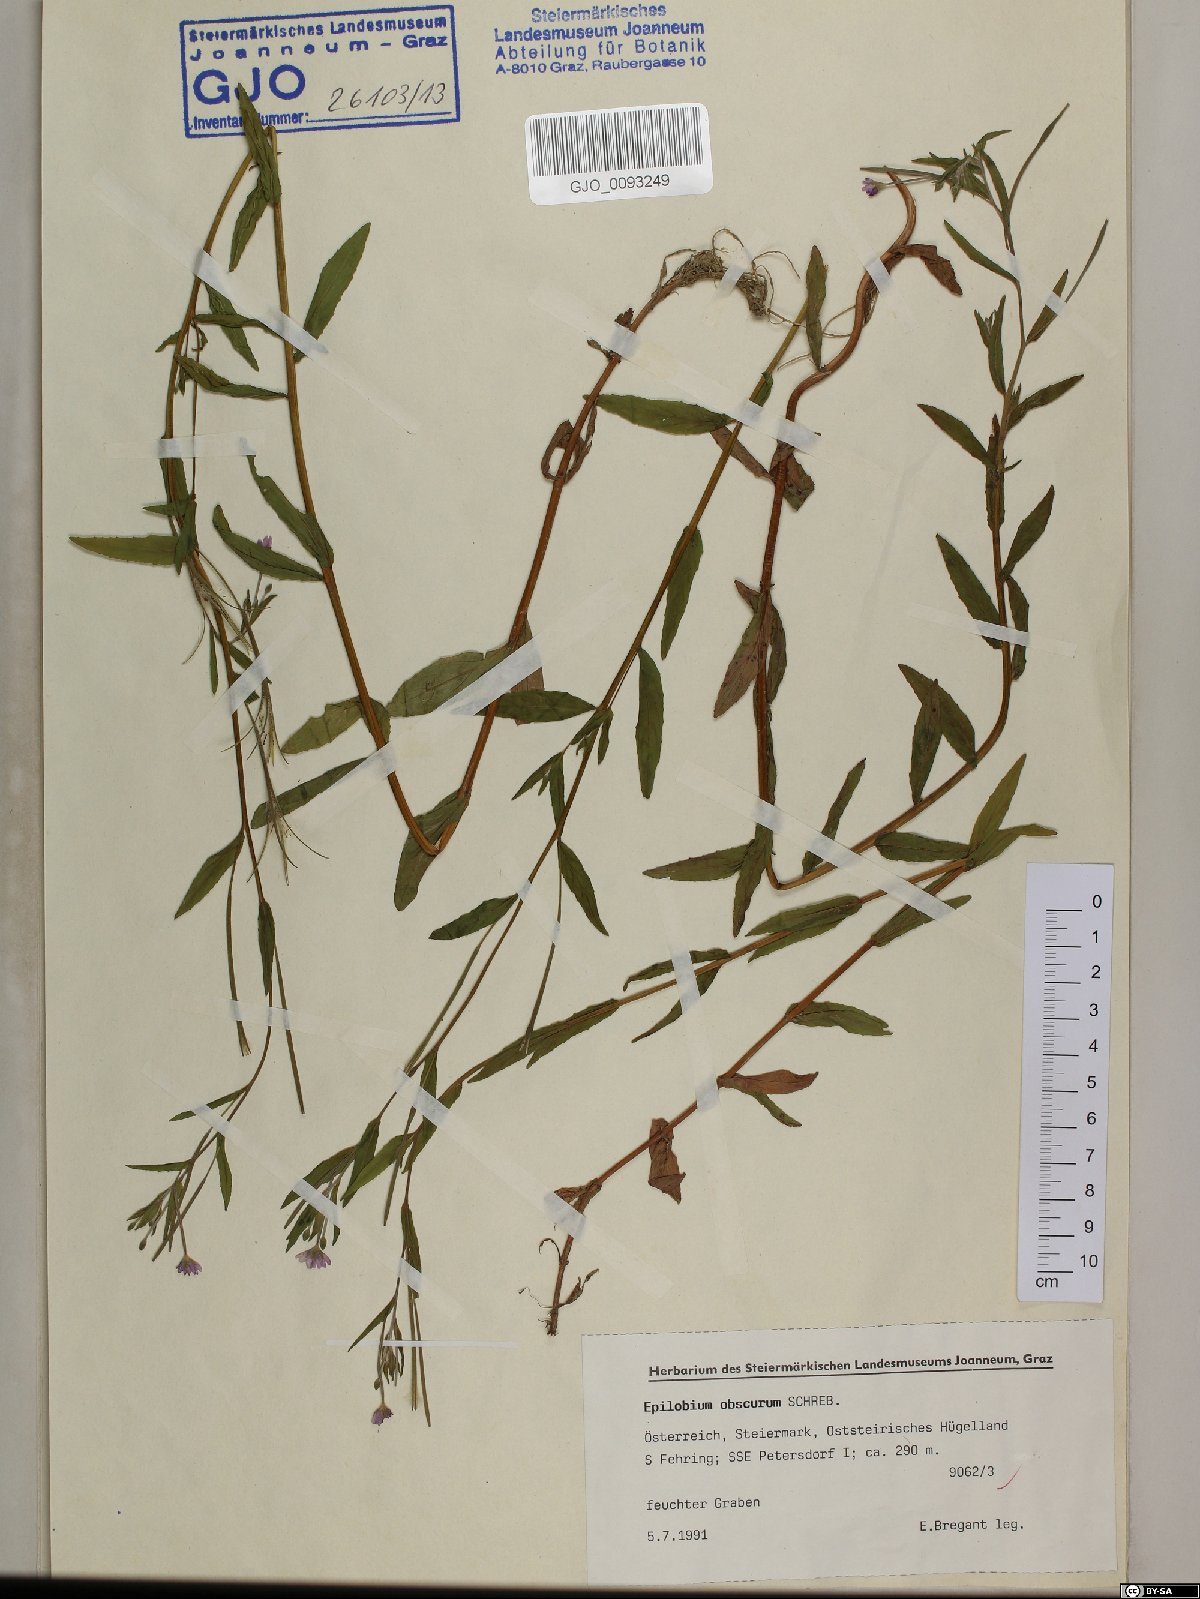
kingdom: Plantae
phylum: Tracheophyta
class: Magnoliopsida
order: Myrtales
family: Onagraceae
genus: Epilobium
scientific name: Epilobium obscurum
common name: Short-fruited willowherb
